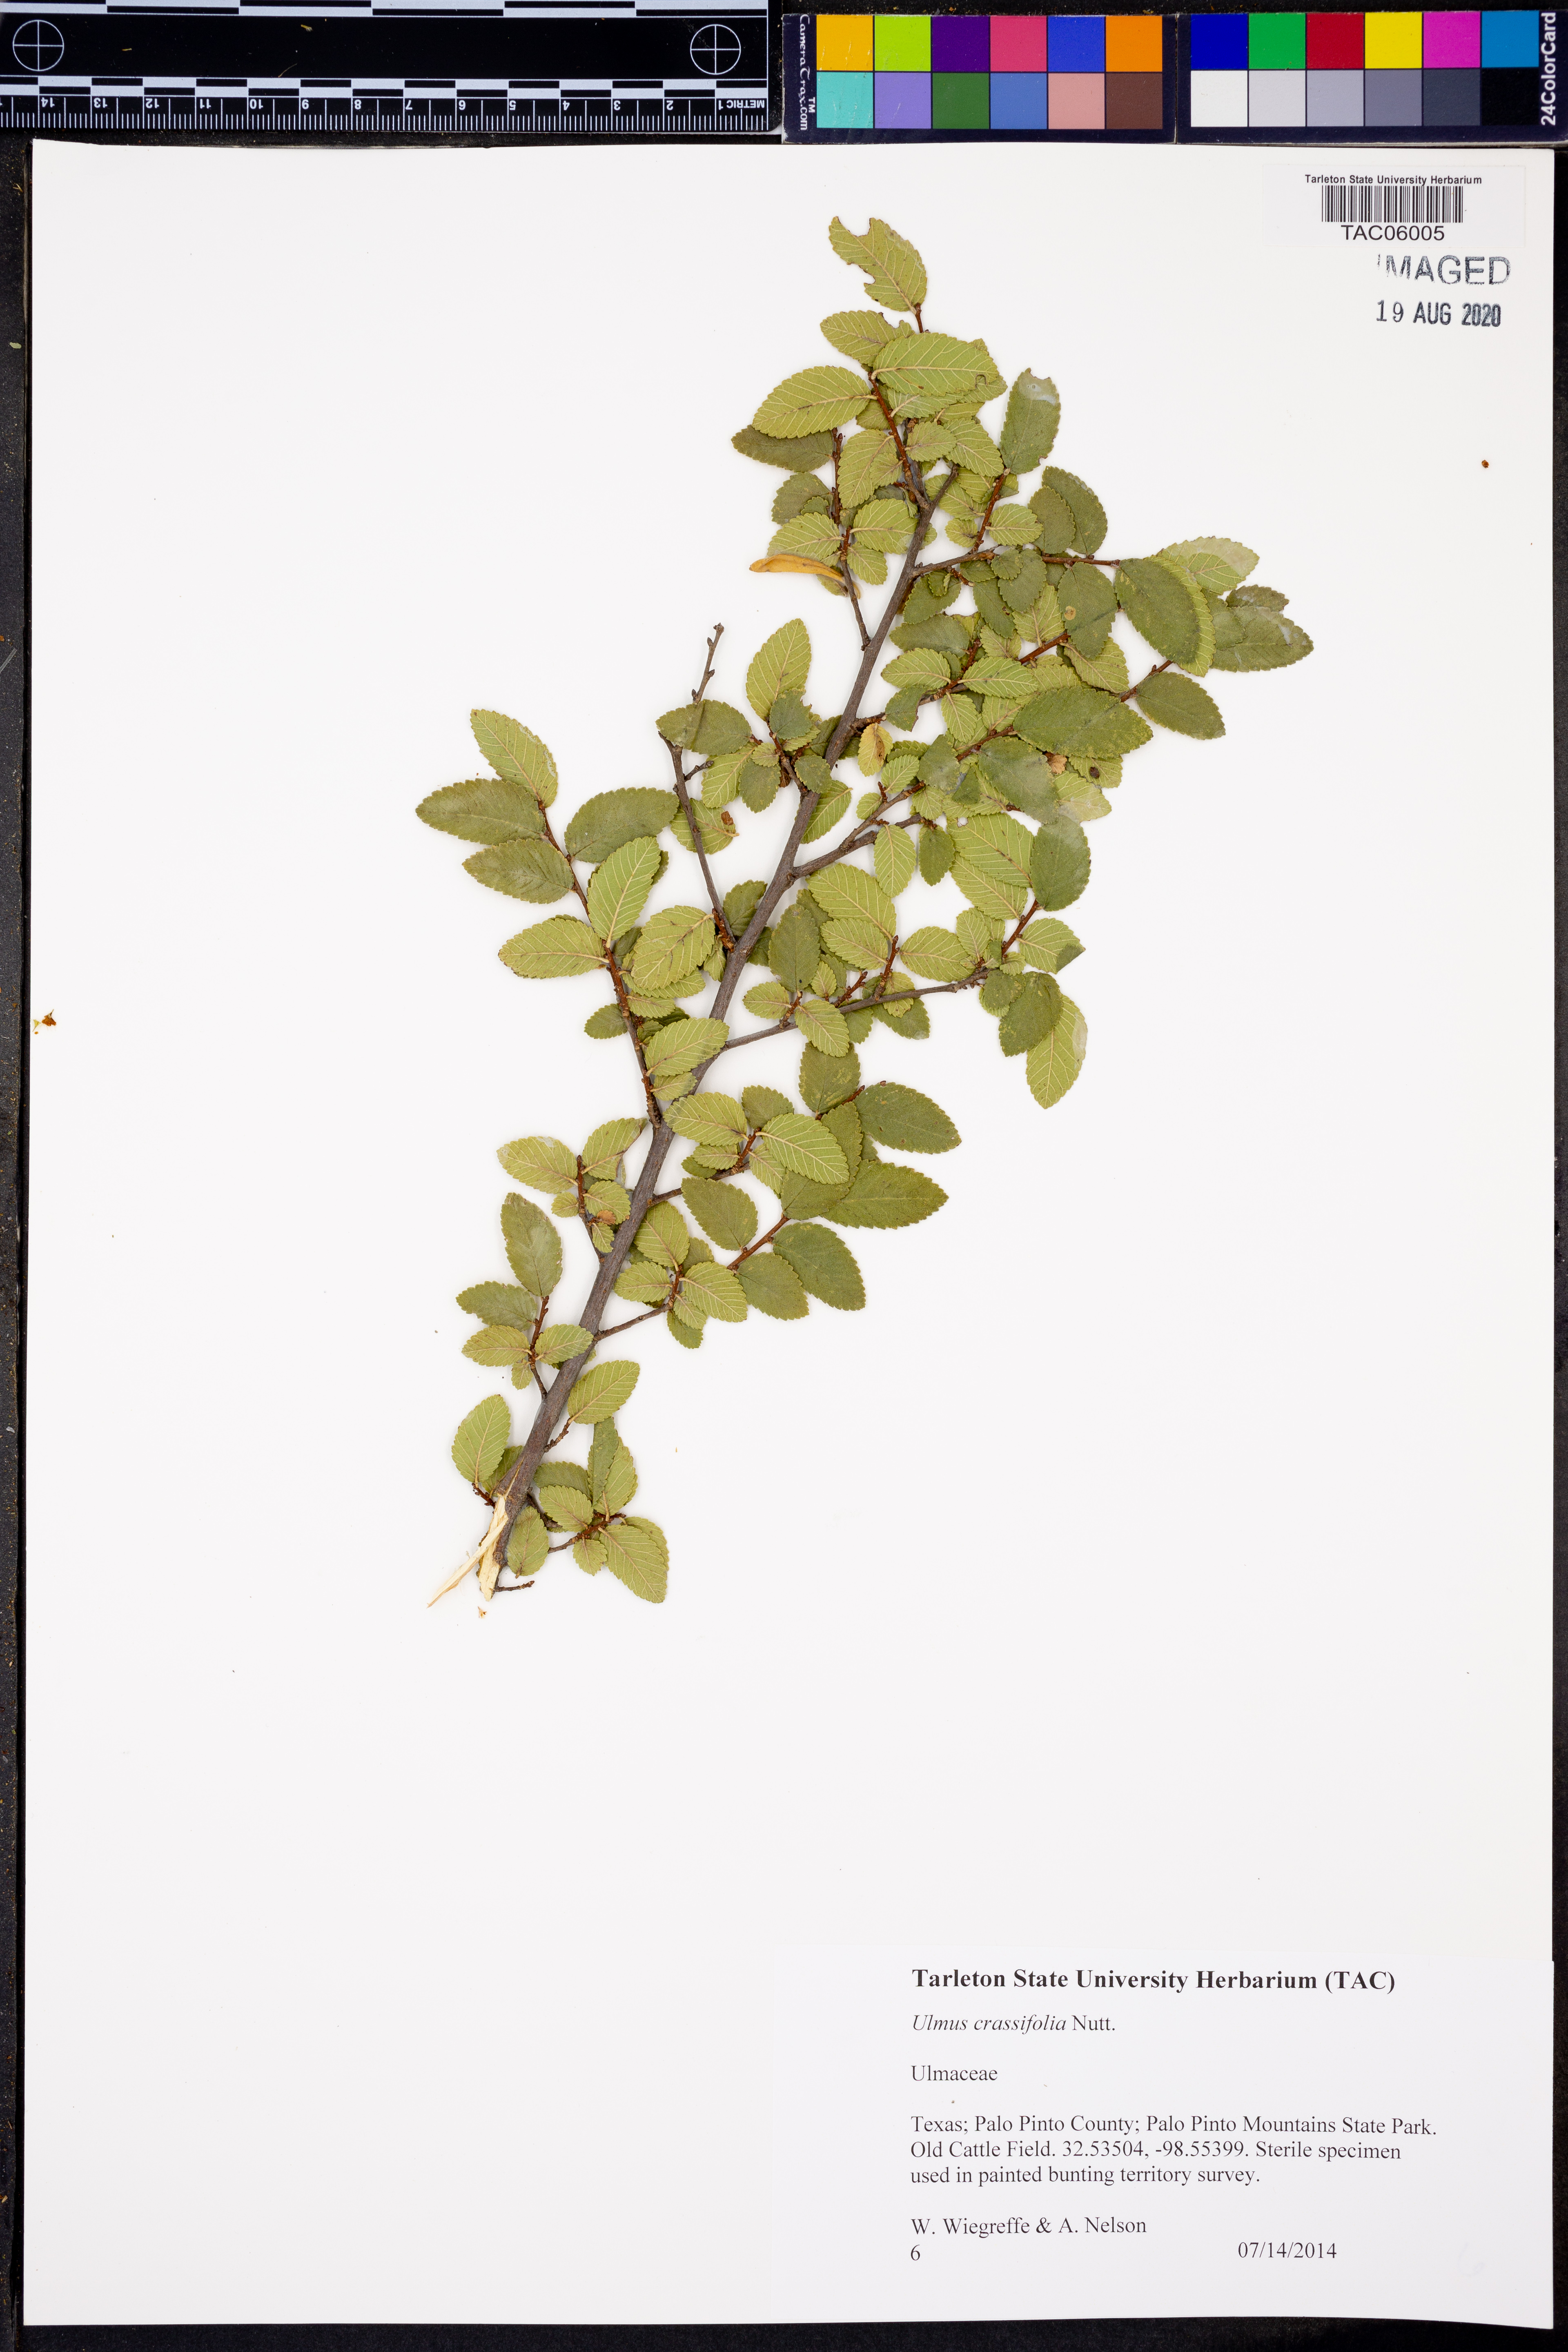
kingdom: Plantae
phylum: Tracheophyta
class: Magnoliopsida
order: Rosales
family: Ulmaceae
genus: Ulmus
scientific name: Ulmus crassifolia
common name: Basket elm
